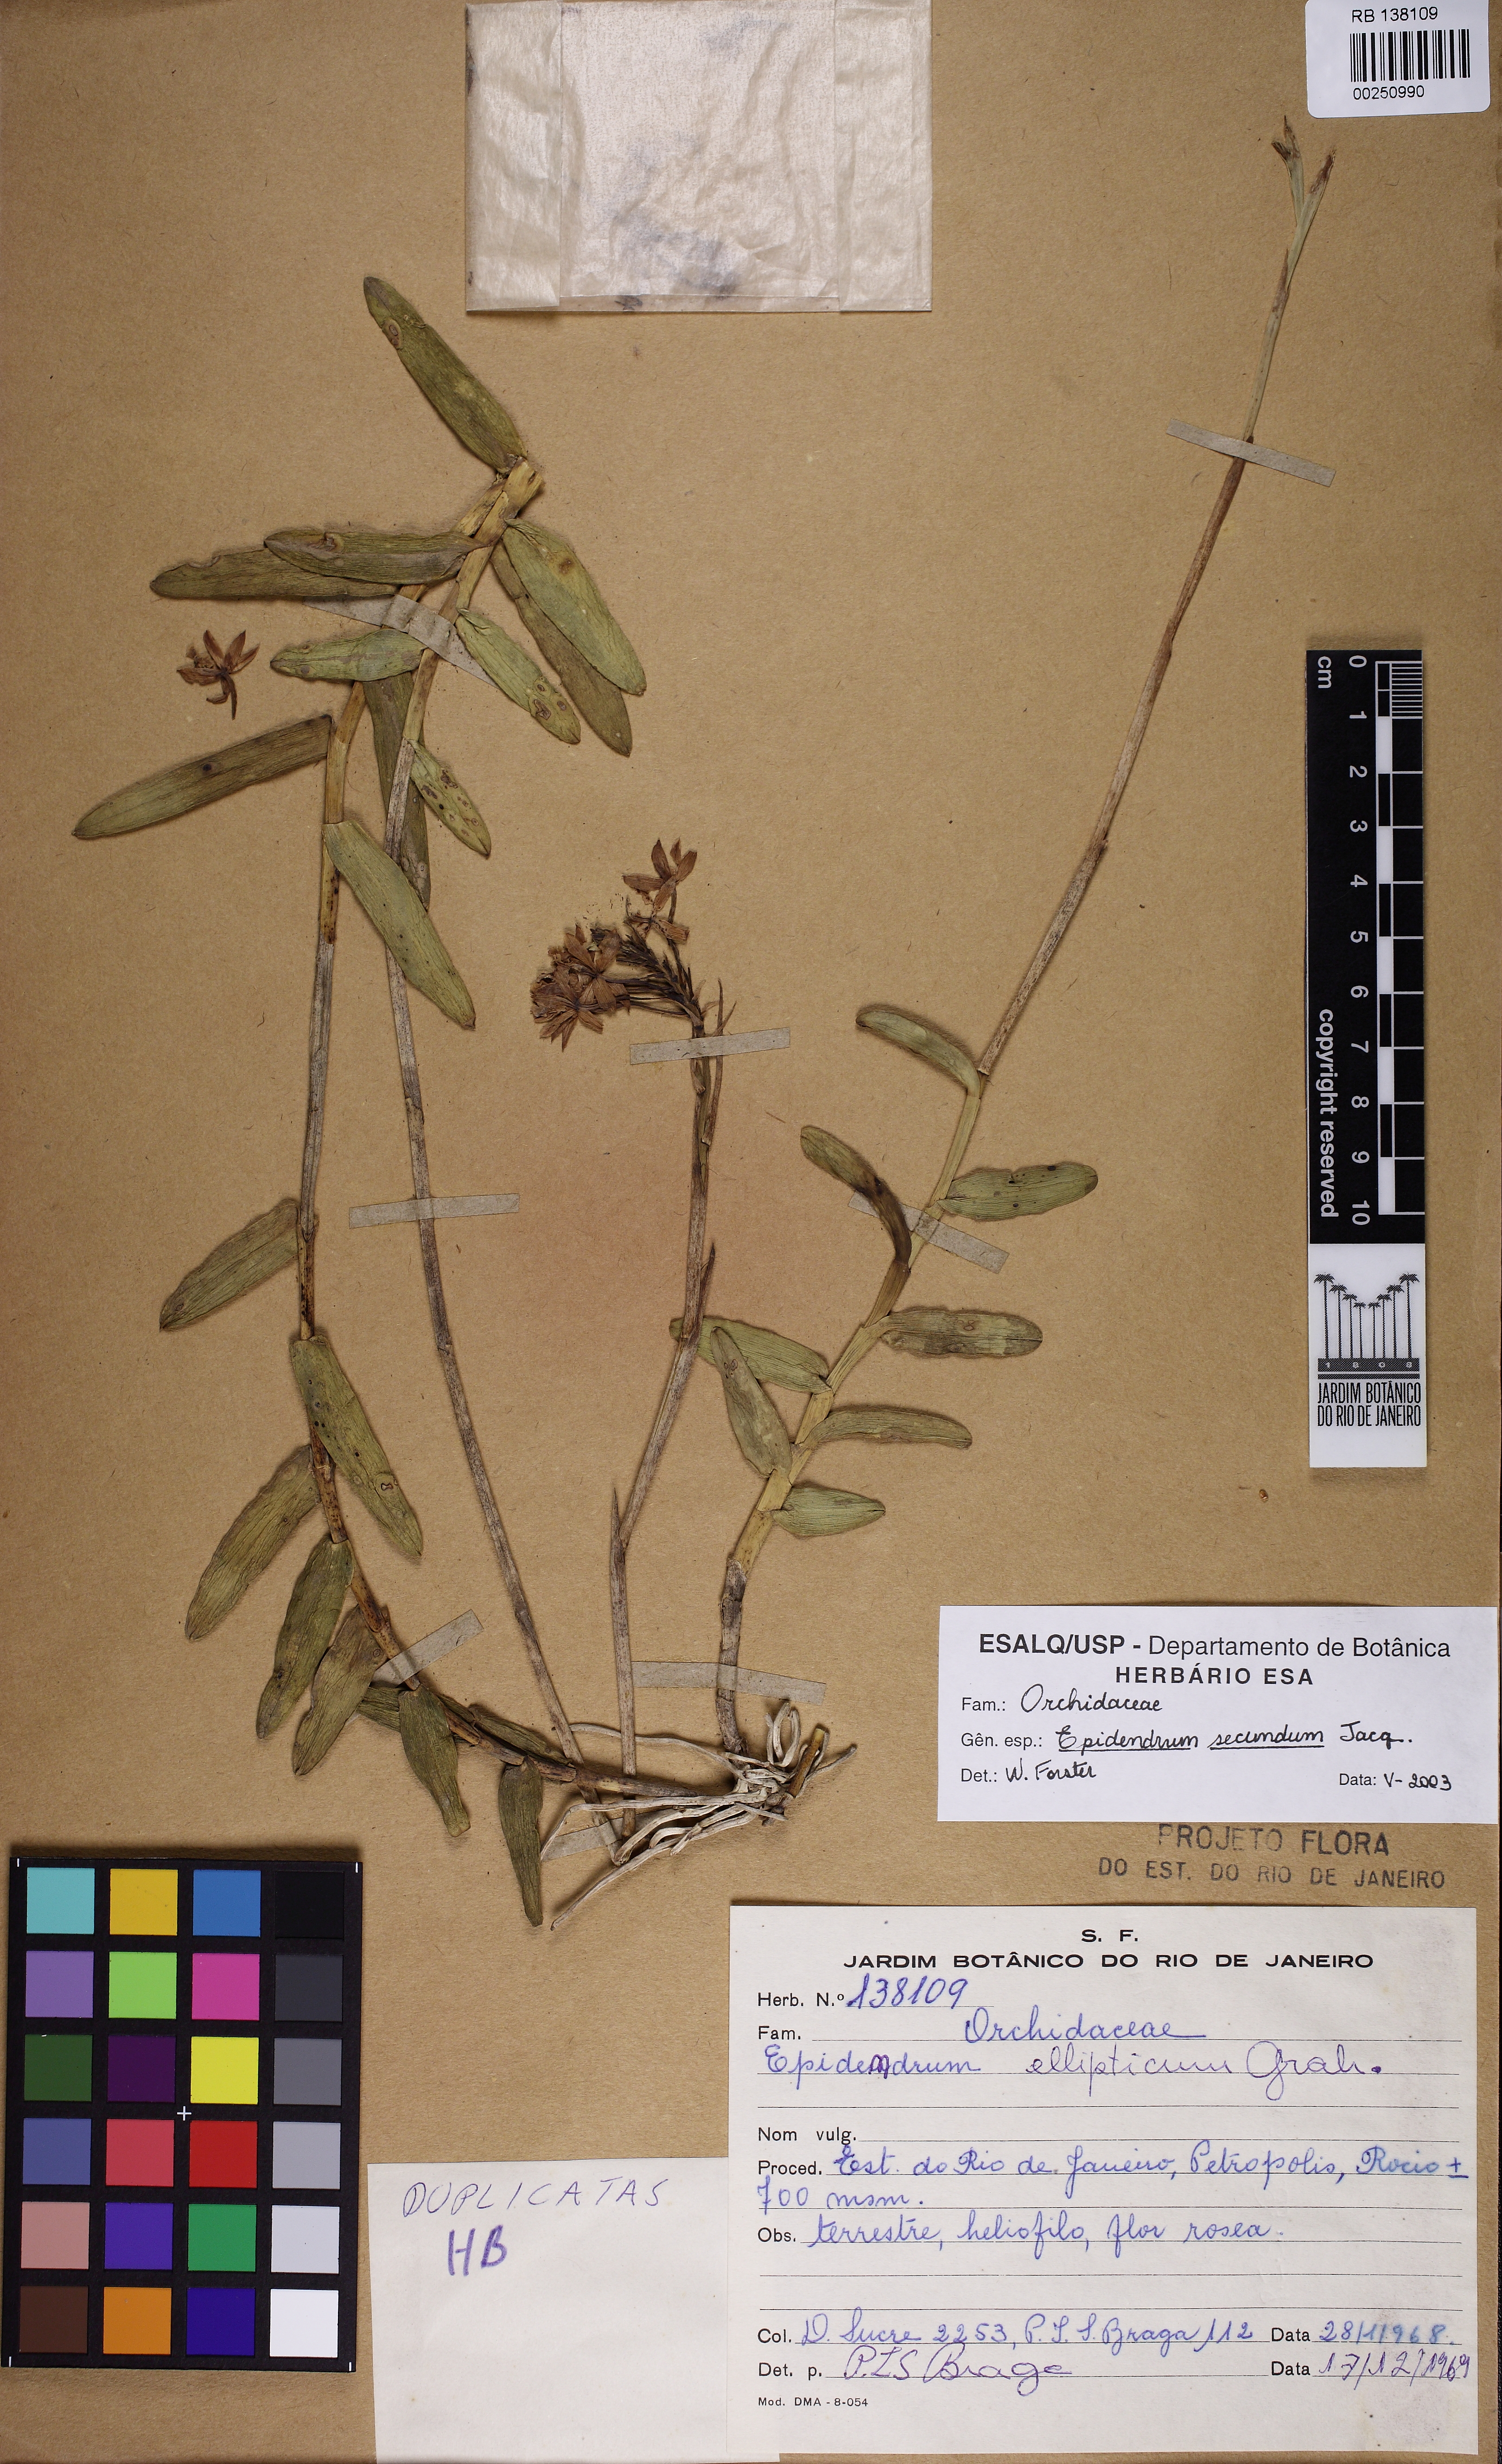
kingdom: Plantae
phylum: Tracheophyta
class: Liliopsida
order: Asparagales
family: Orchidaceae
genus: Epidendrum
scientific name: Epidendrum secundum
